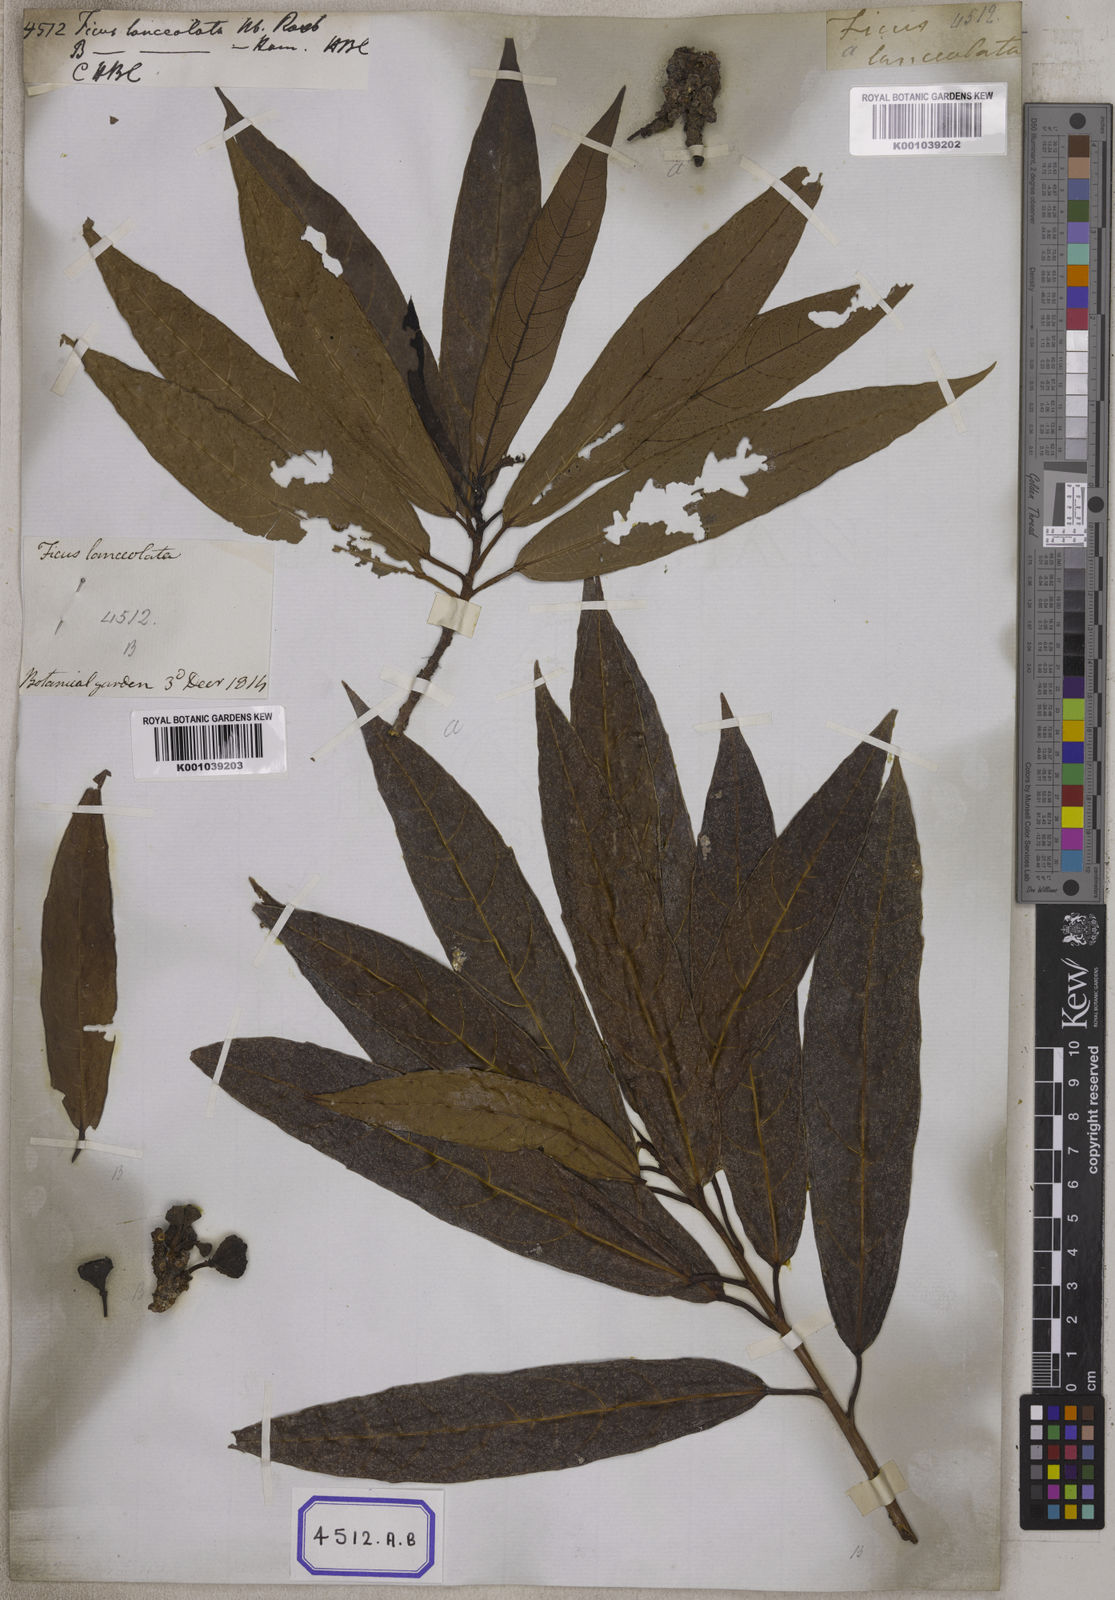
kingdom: Plantae
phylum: Tracheophyta
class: Magnoliopsida
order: Rosales
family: Moraceae
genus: Ficus
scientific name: Ficus racemosa
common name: Cluster fig
